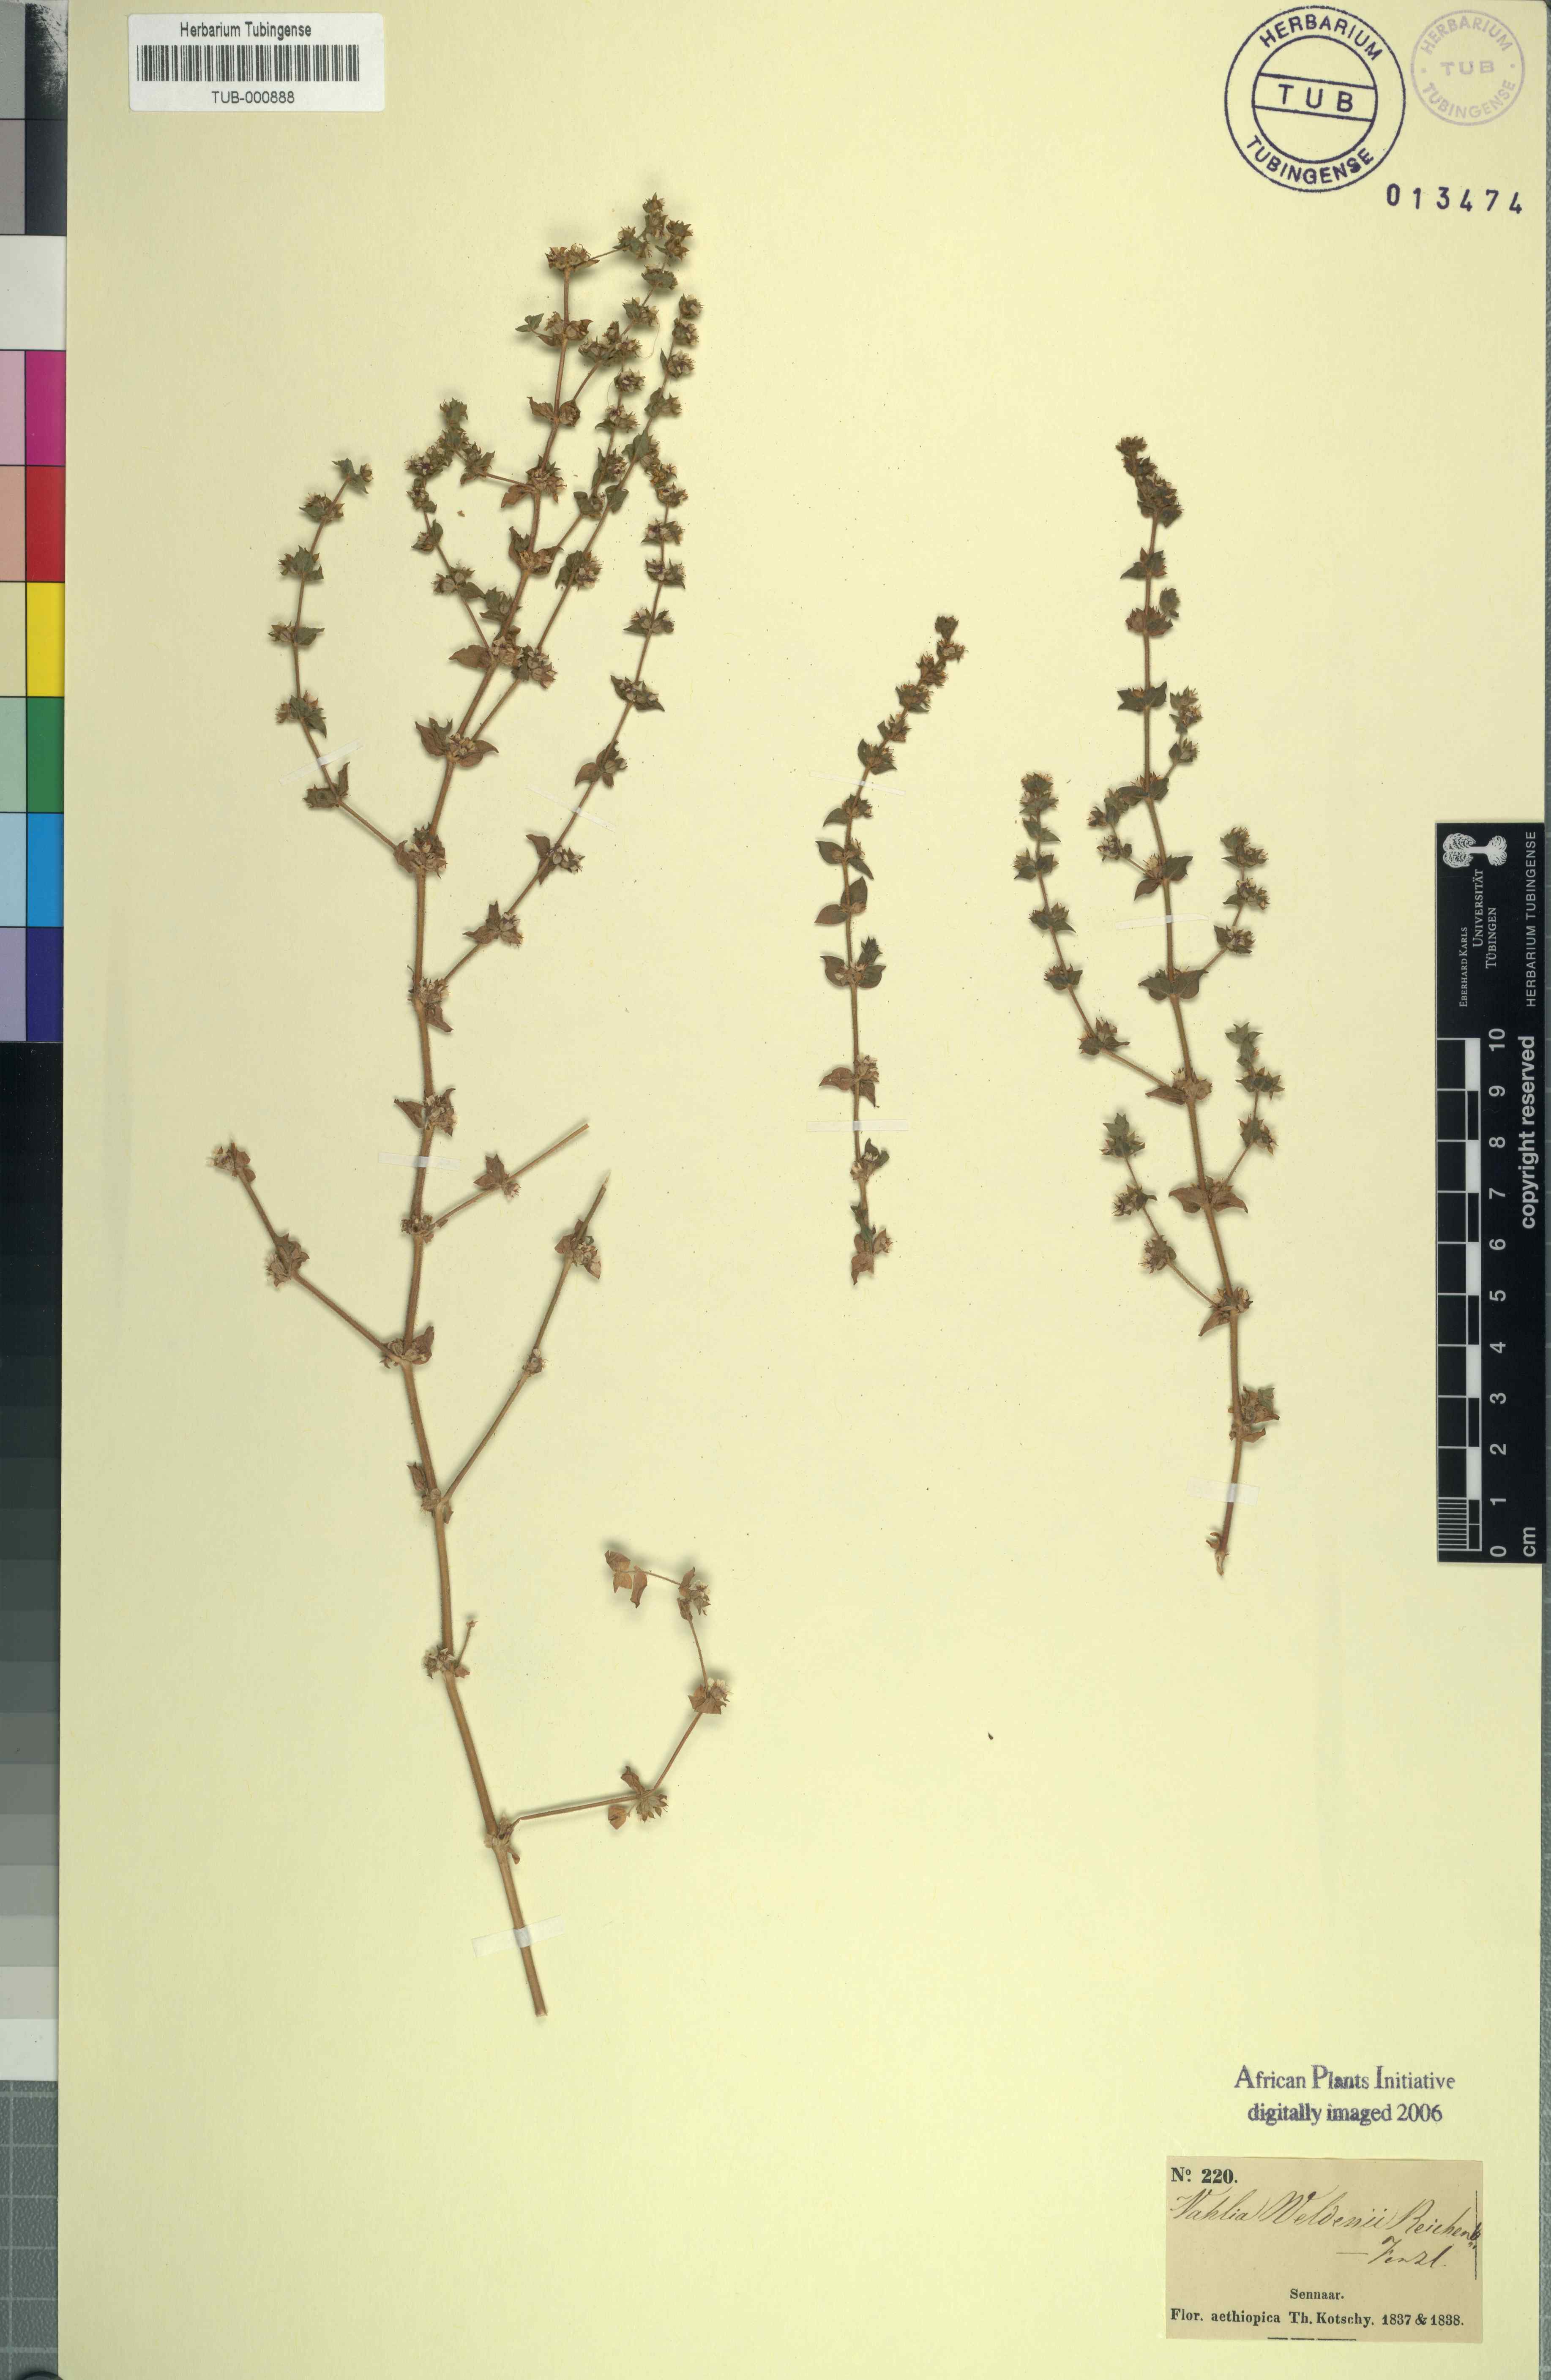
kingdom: Plantae
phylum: Tracheophyta
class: Magnoliopsida
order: Vahliales
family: Vahliaceae
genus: Vahlia
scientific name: Vahlia digyna
